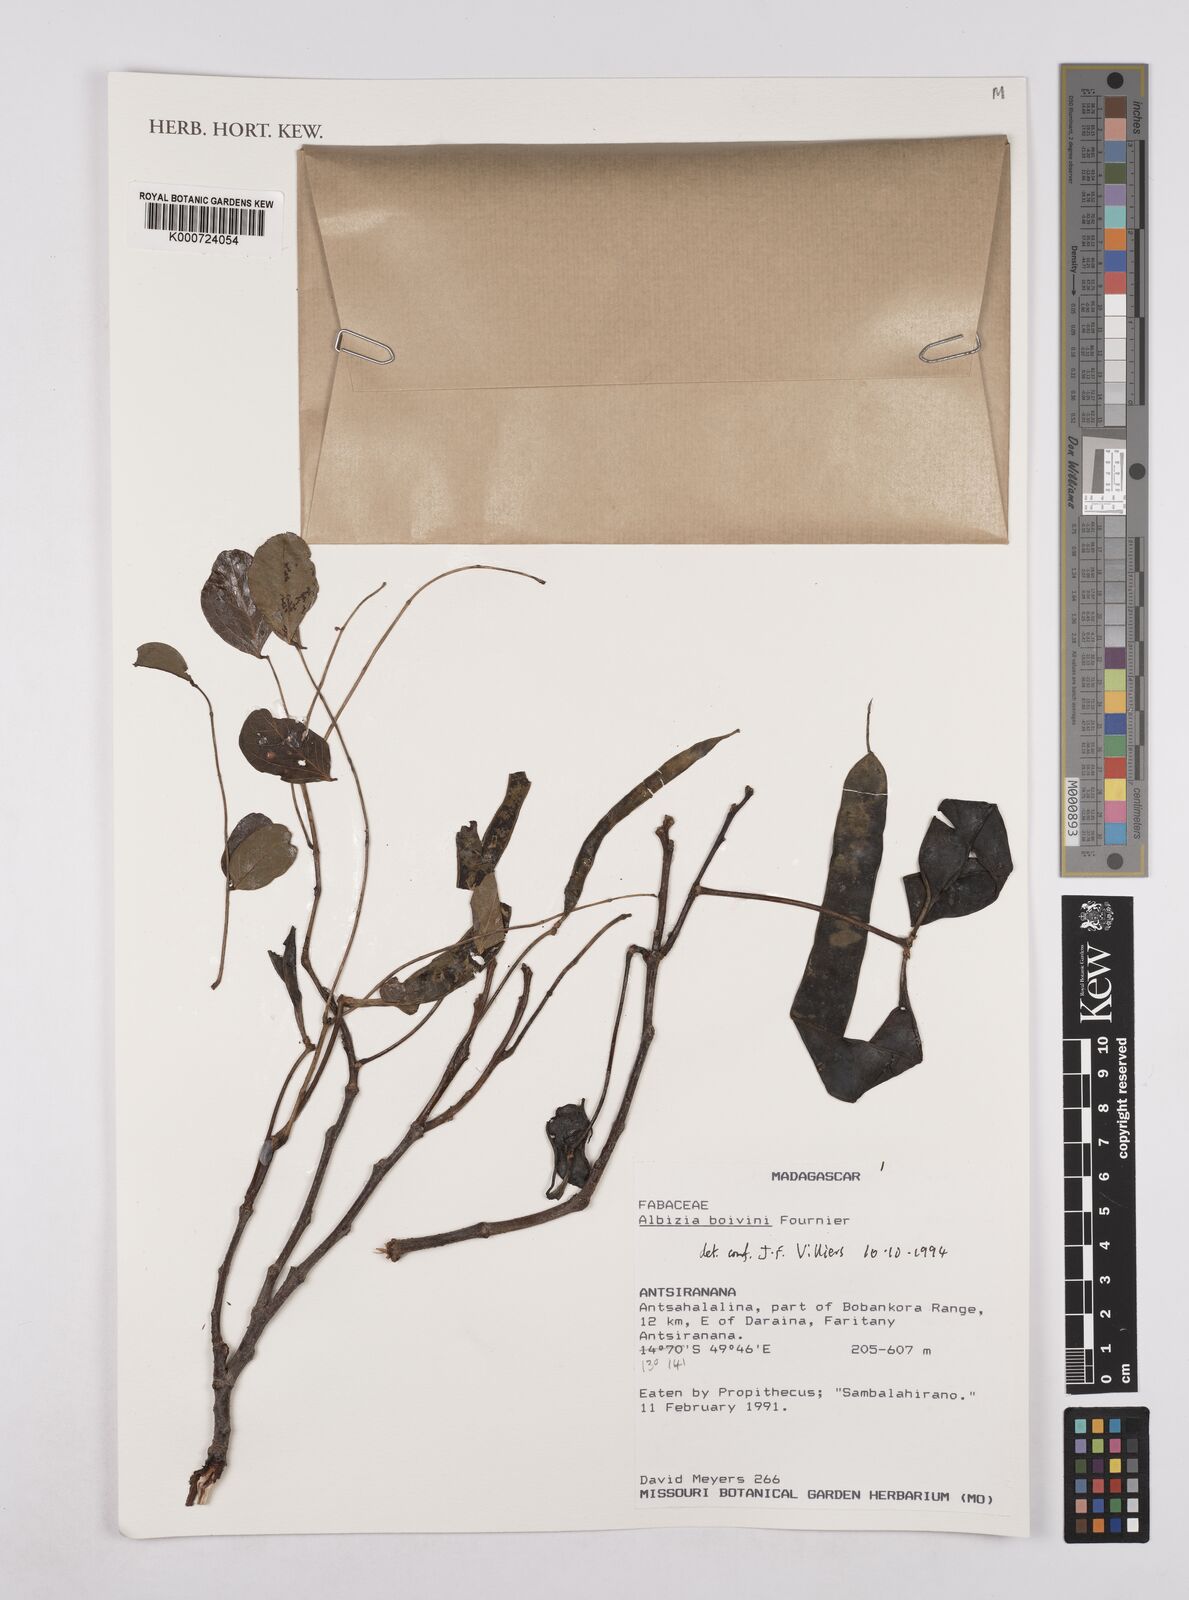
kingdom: Plantae
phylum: Tracheophyta
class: Magnoliopsida
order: Fabales
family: Fabaceae
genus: Albizia
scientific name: Albizia boivinii
